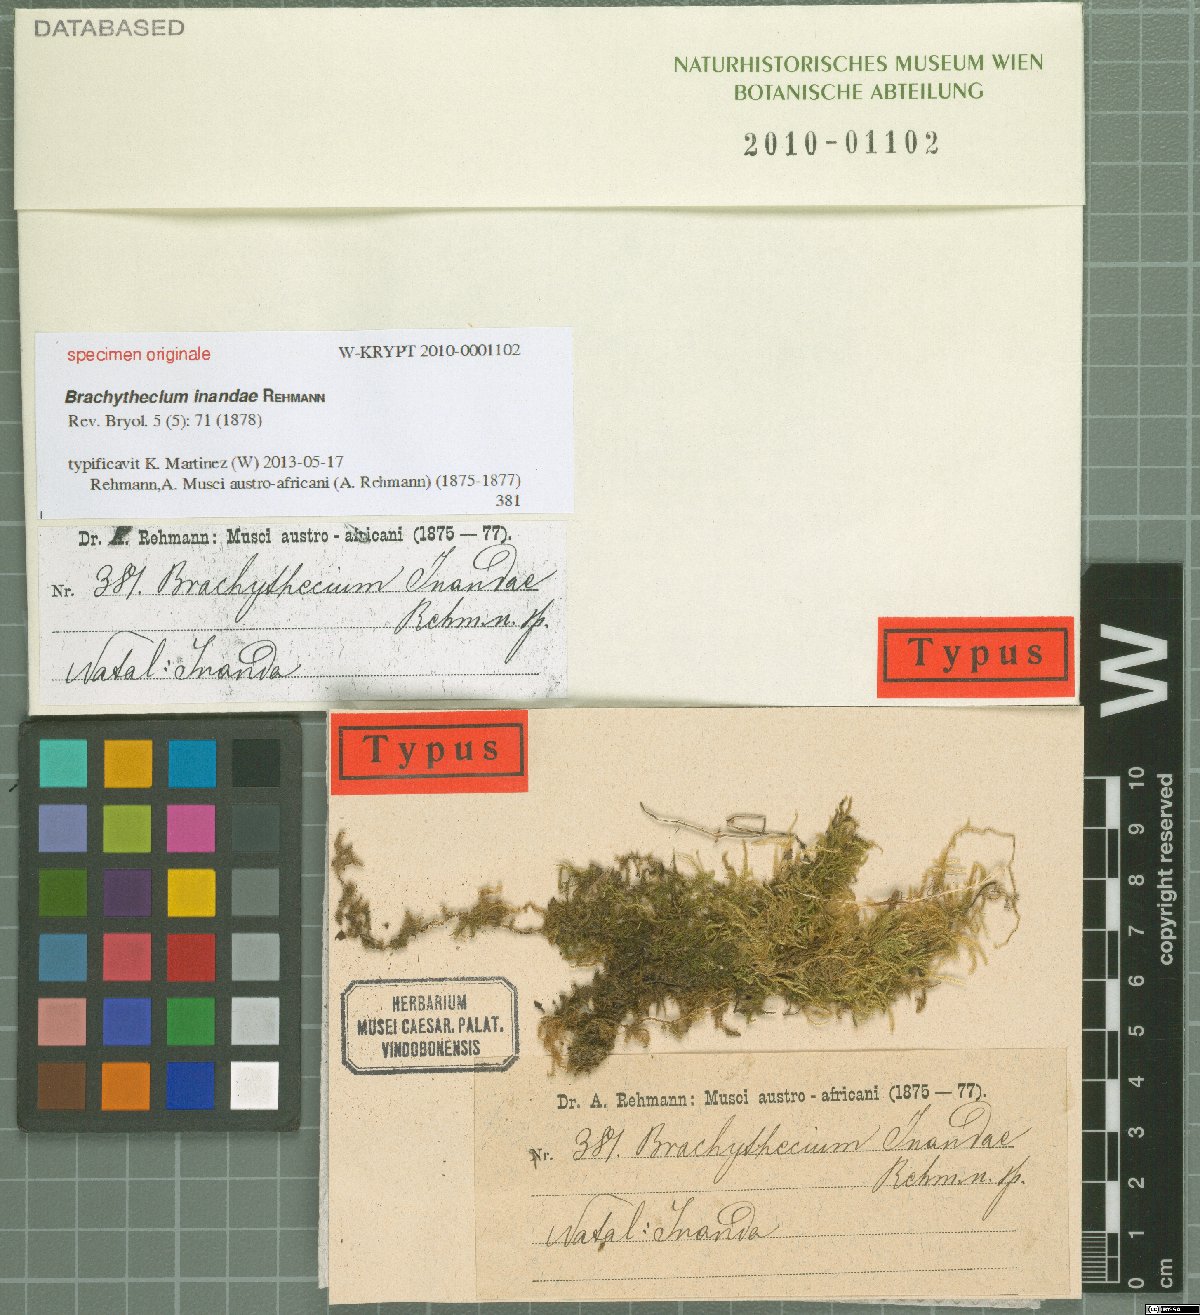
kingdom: Plantae
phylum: Bryophyta
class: Bryopsida
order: Hypnales
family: Brachytheciaceae
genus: Brachythecium
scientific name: Brachythecium
